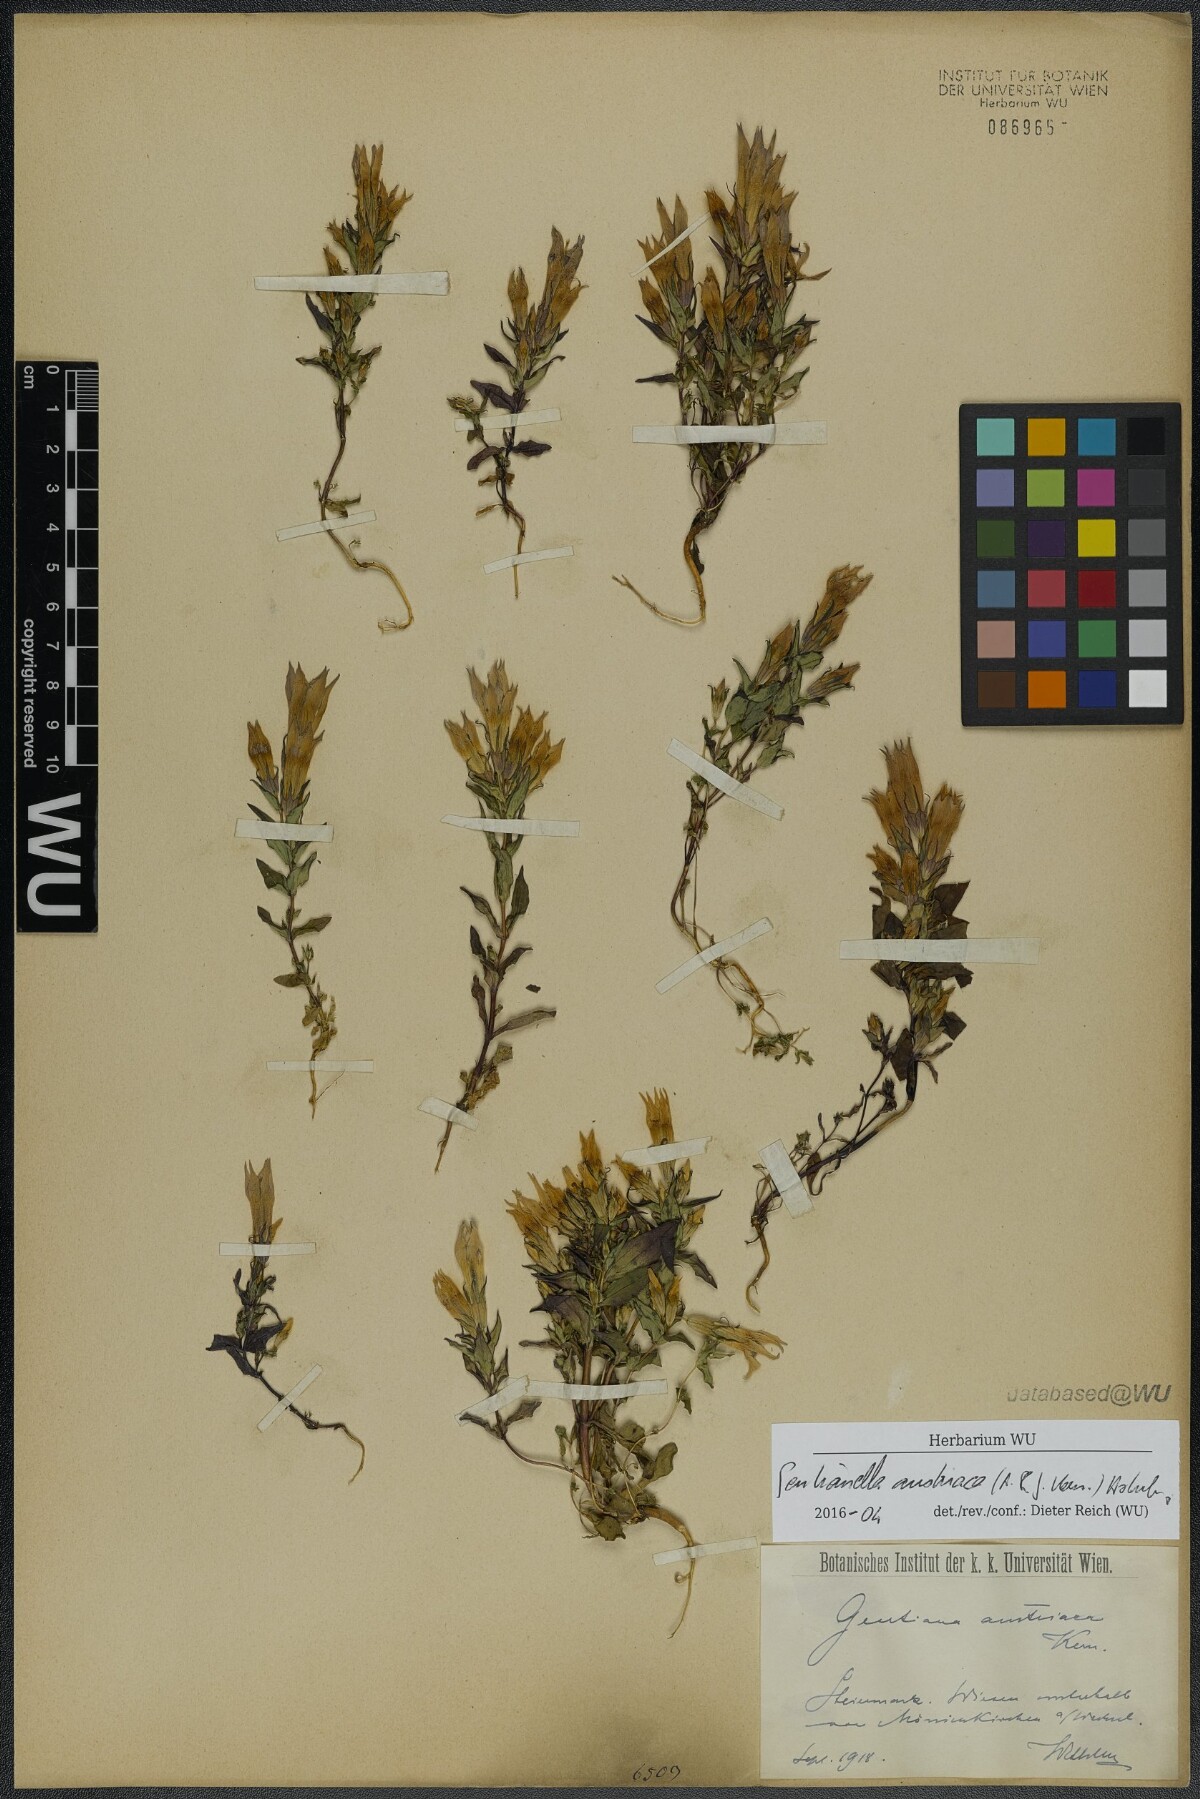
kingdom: Plantae
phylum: Tracheophyta
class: Magnoliopsida
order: Gentianales
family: Gentianaceae
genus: Gentianella
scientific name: Gentianella austriaca
